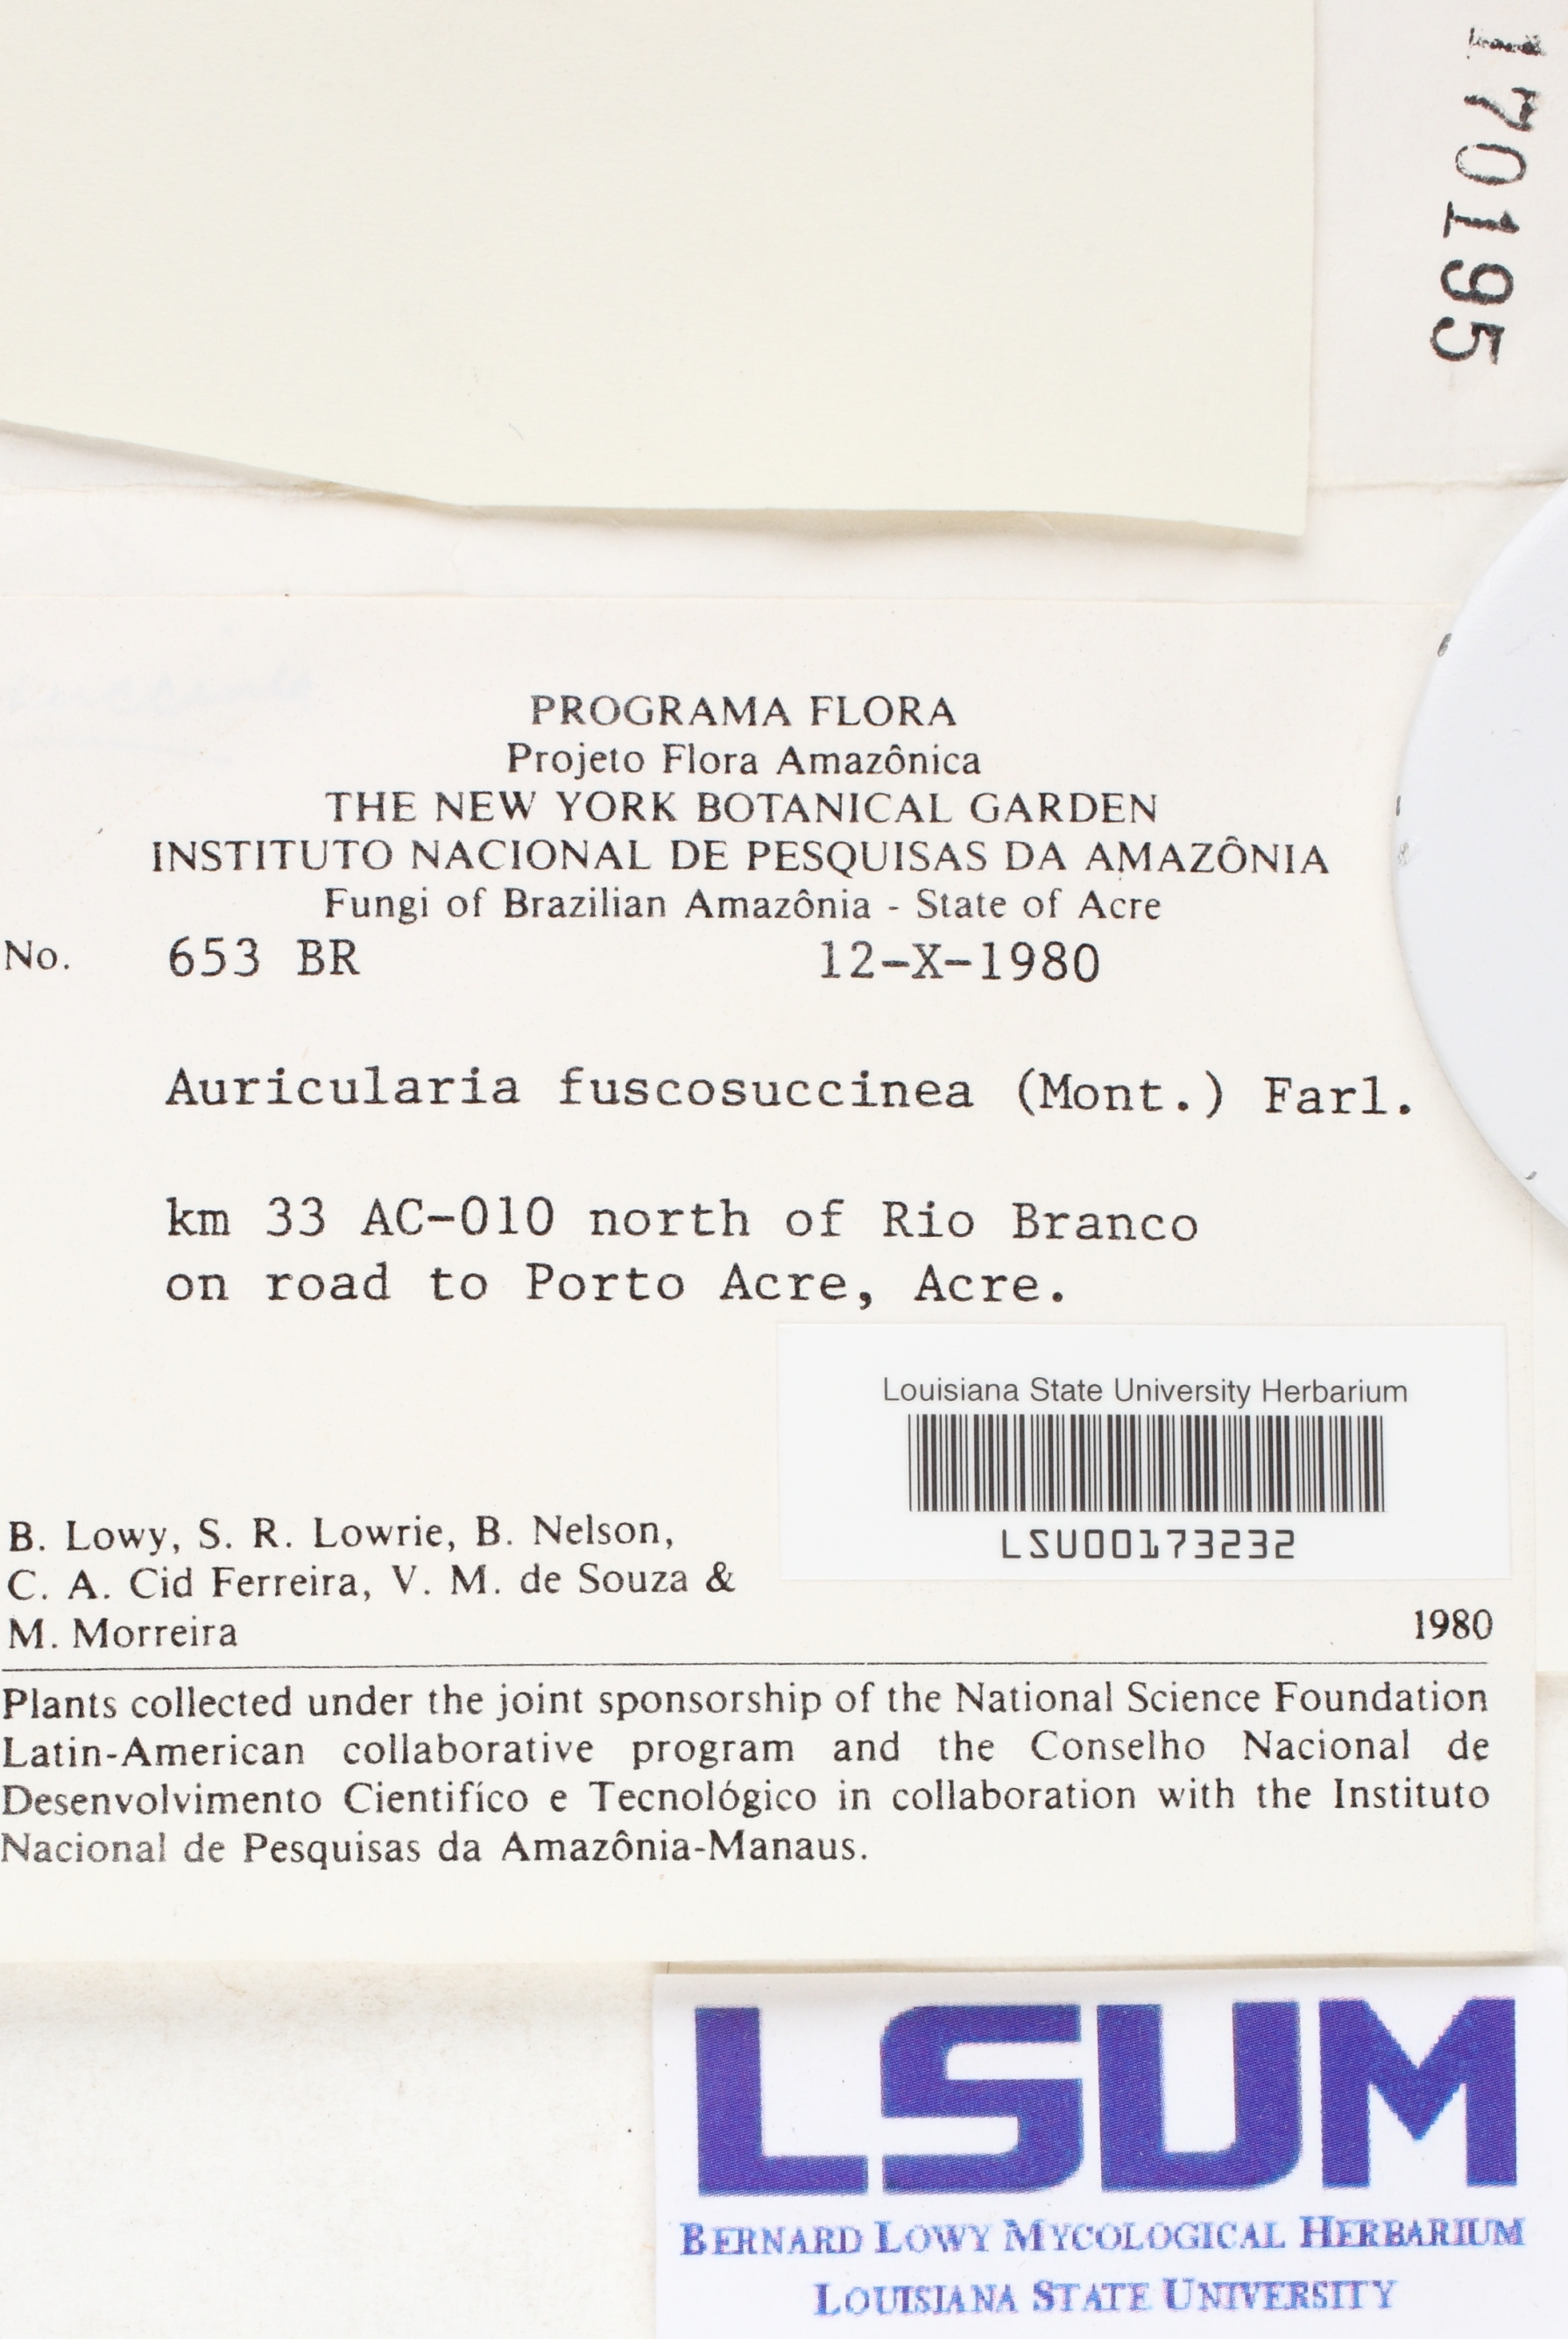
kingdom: Fungi
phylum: Basidiomycota
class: Agaricomycetes
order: Auriculariales
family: Auriculariaceae
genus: Auricularia
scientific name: Auricularia fuscosuccinea
